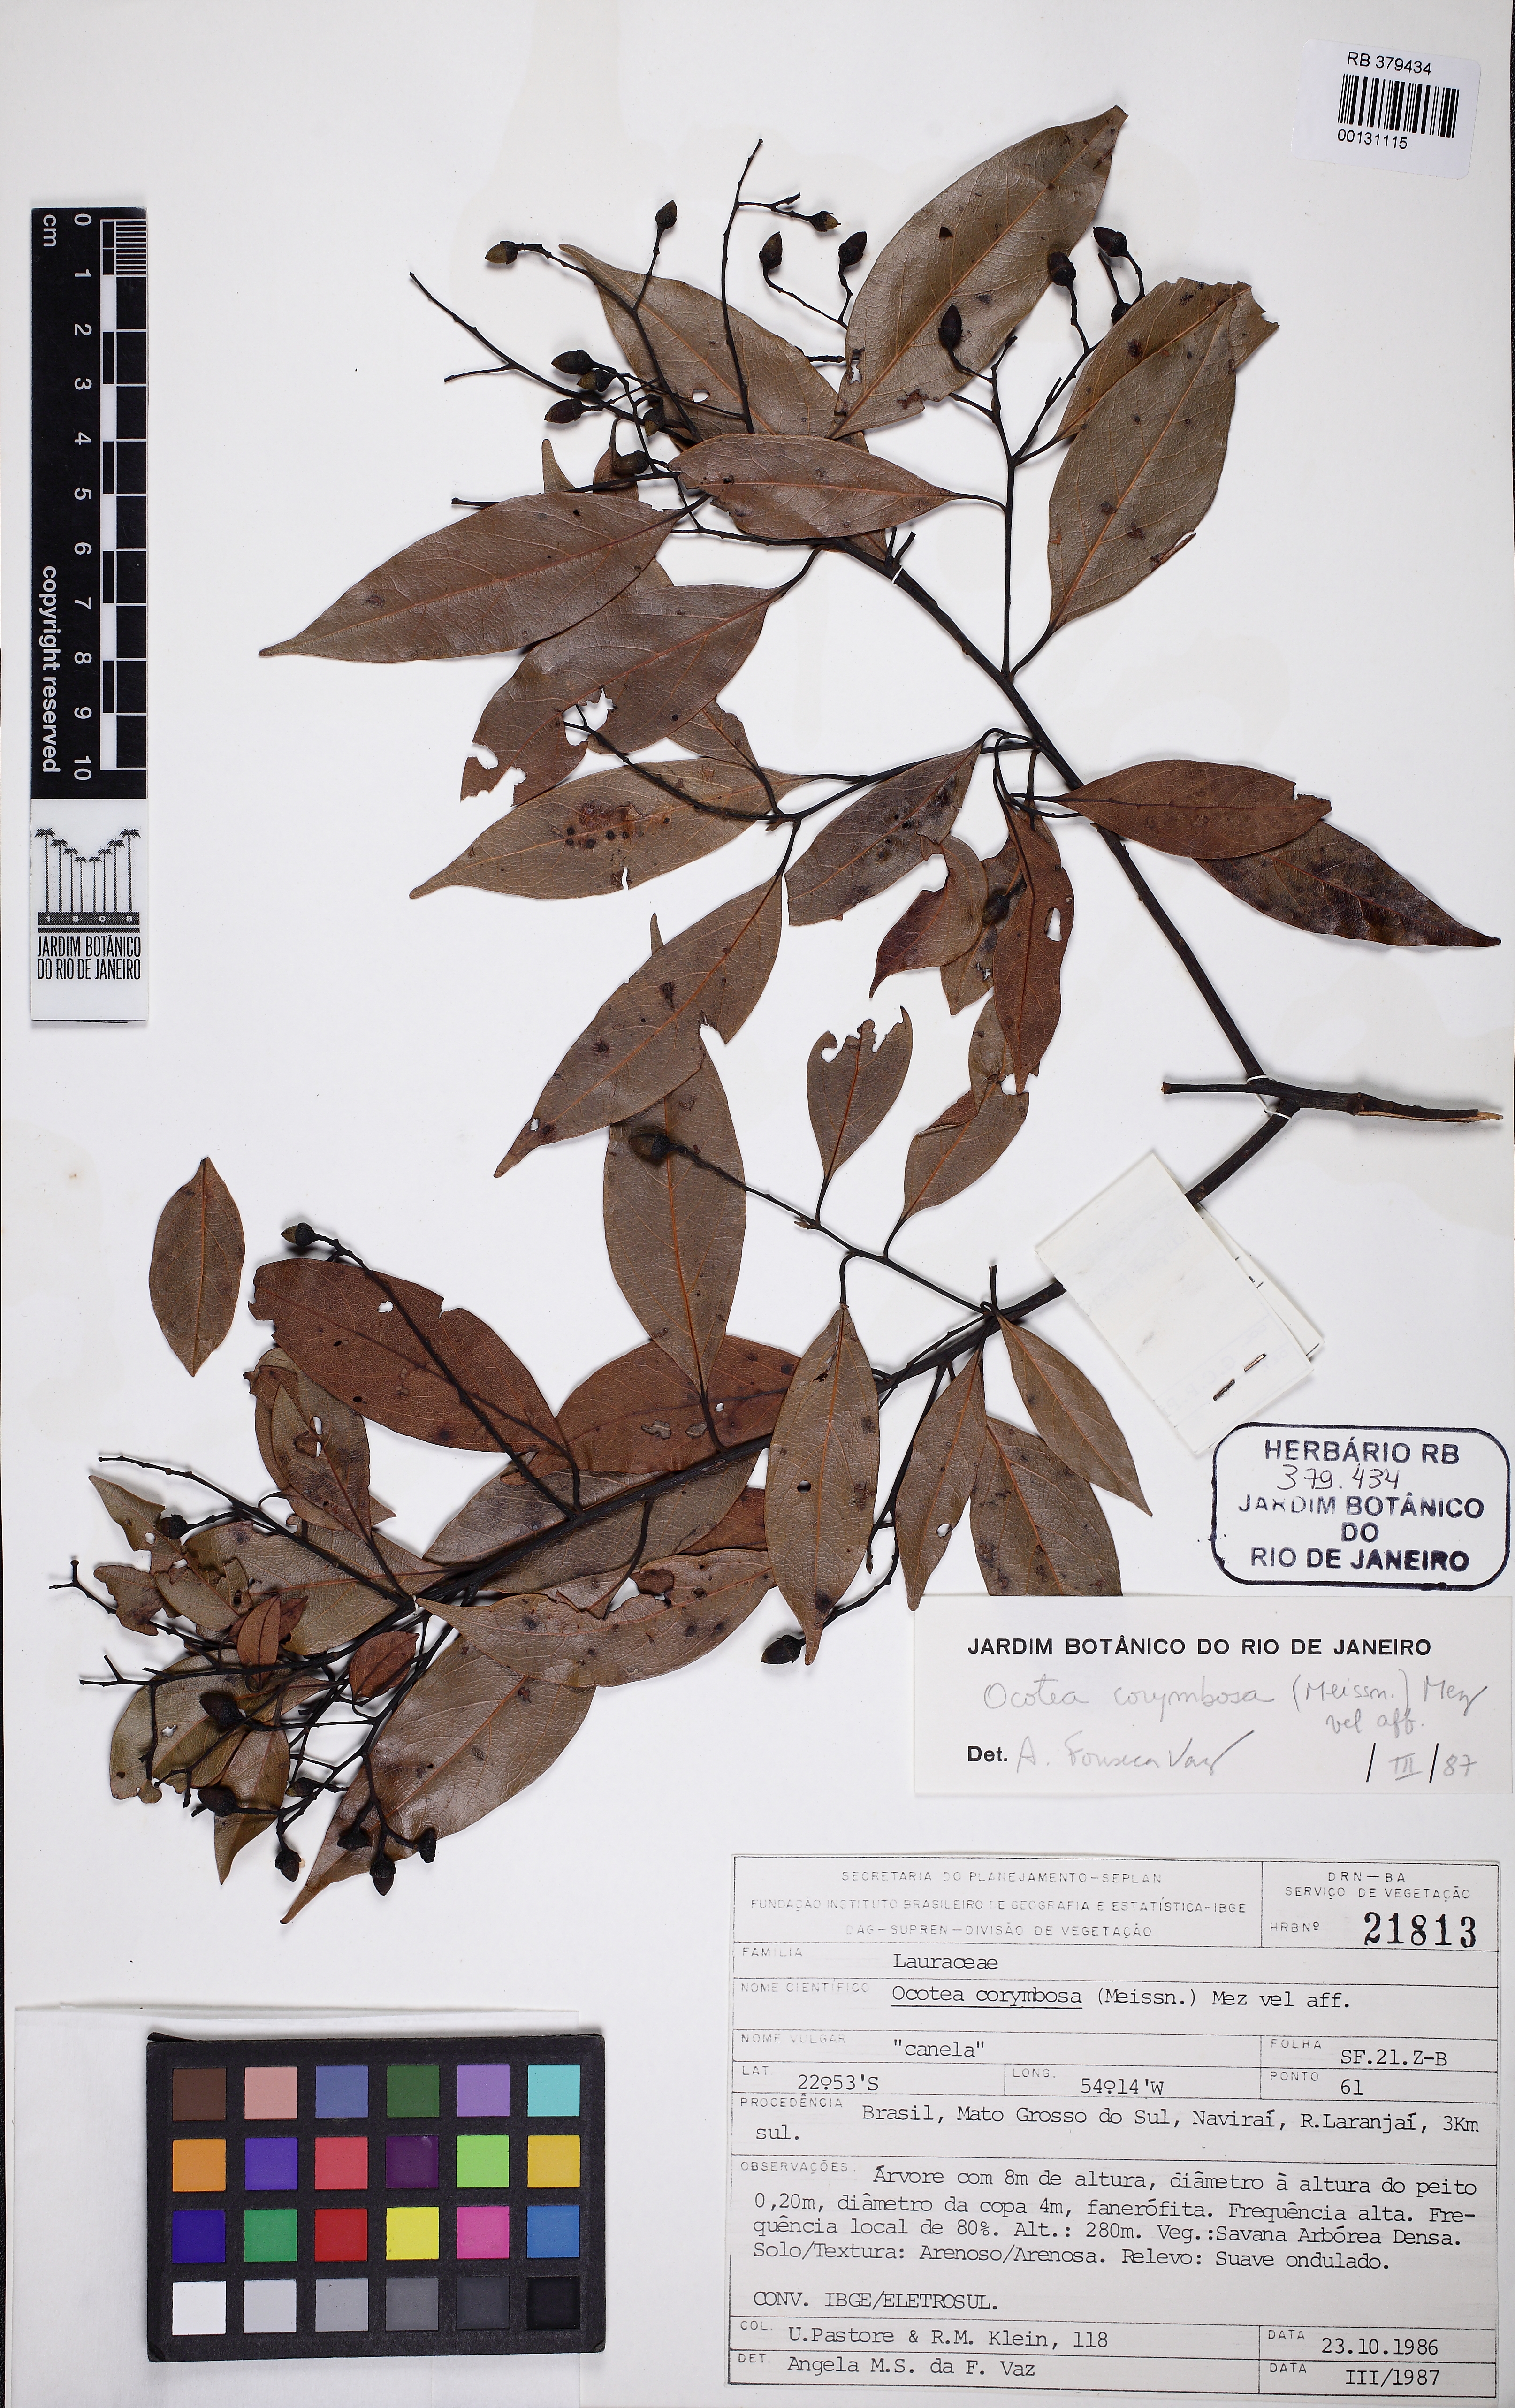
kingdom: Plantae
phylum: Tracheophyta
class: Magnoliopsida
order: Laurales
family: Lauraceae
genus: Mespilodaphne
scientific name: Mespilodaphne corymbosa
